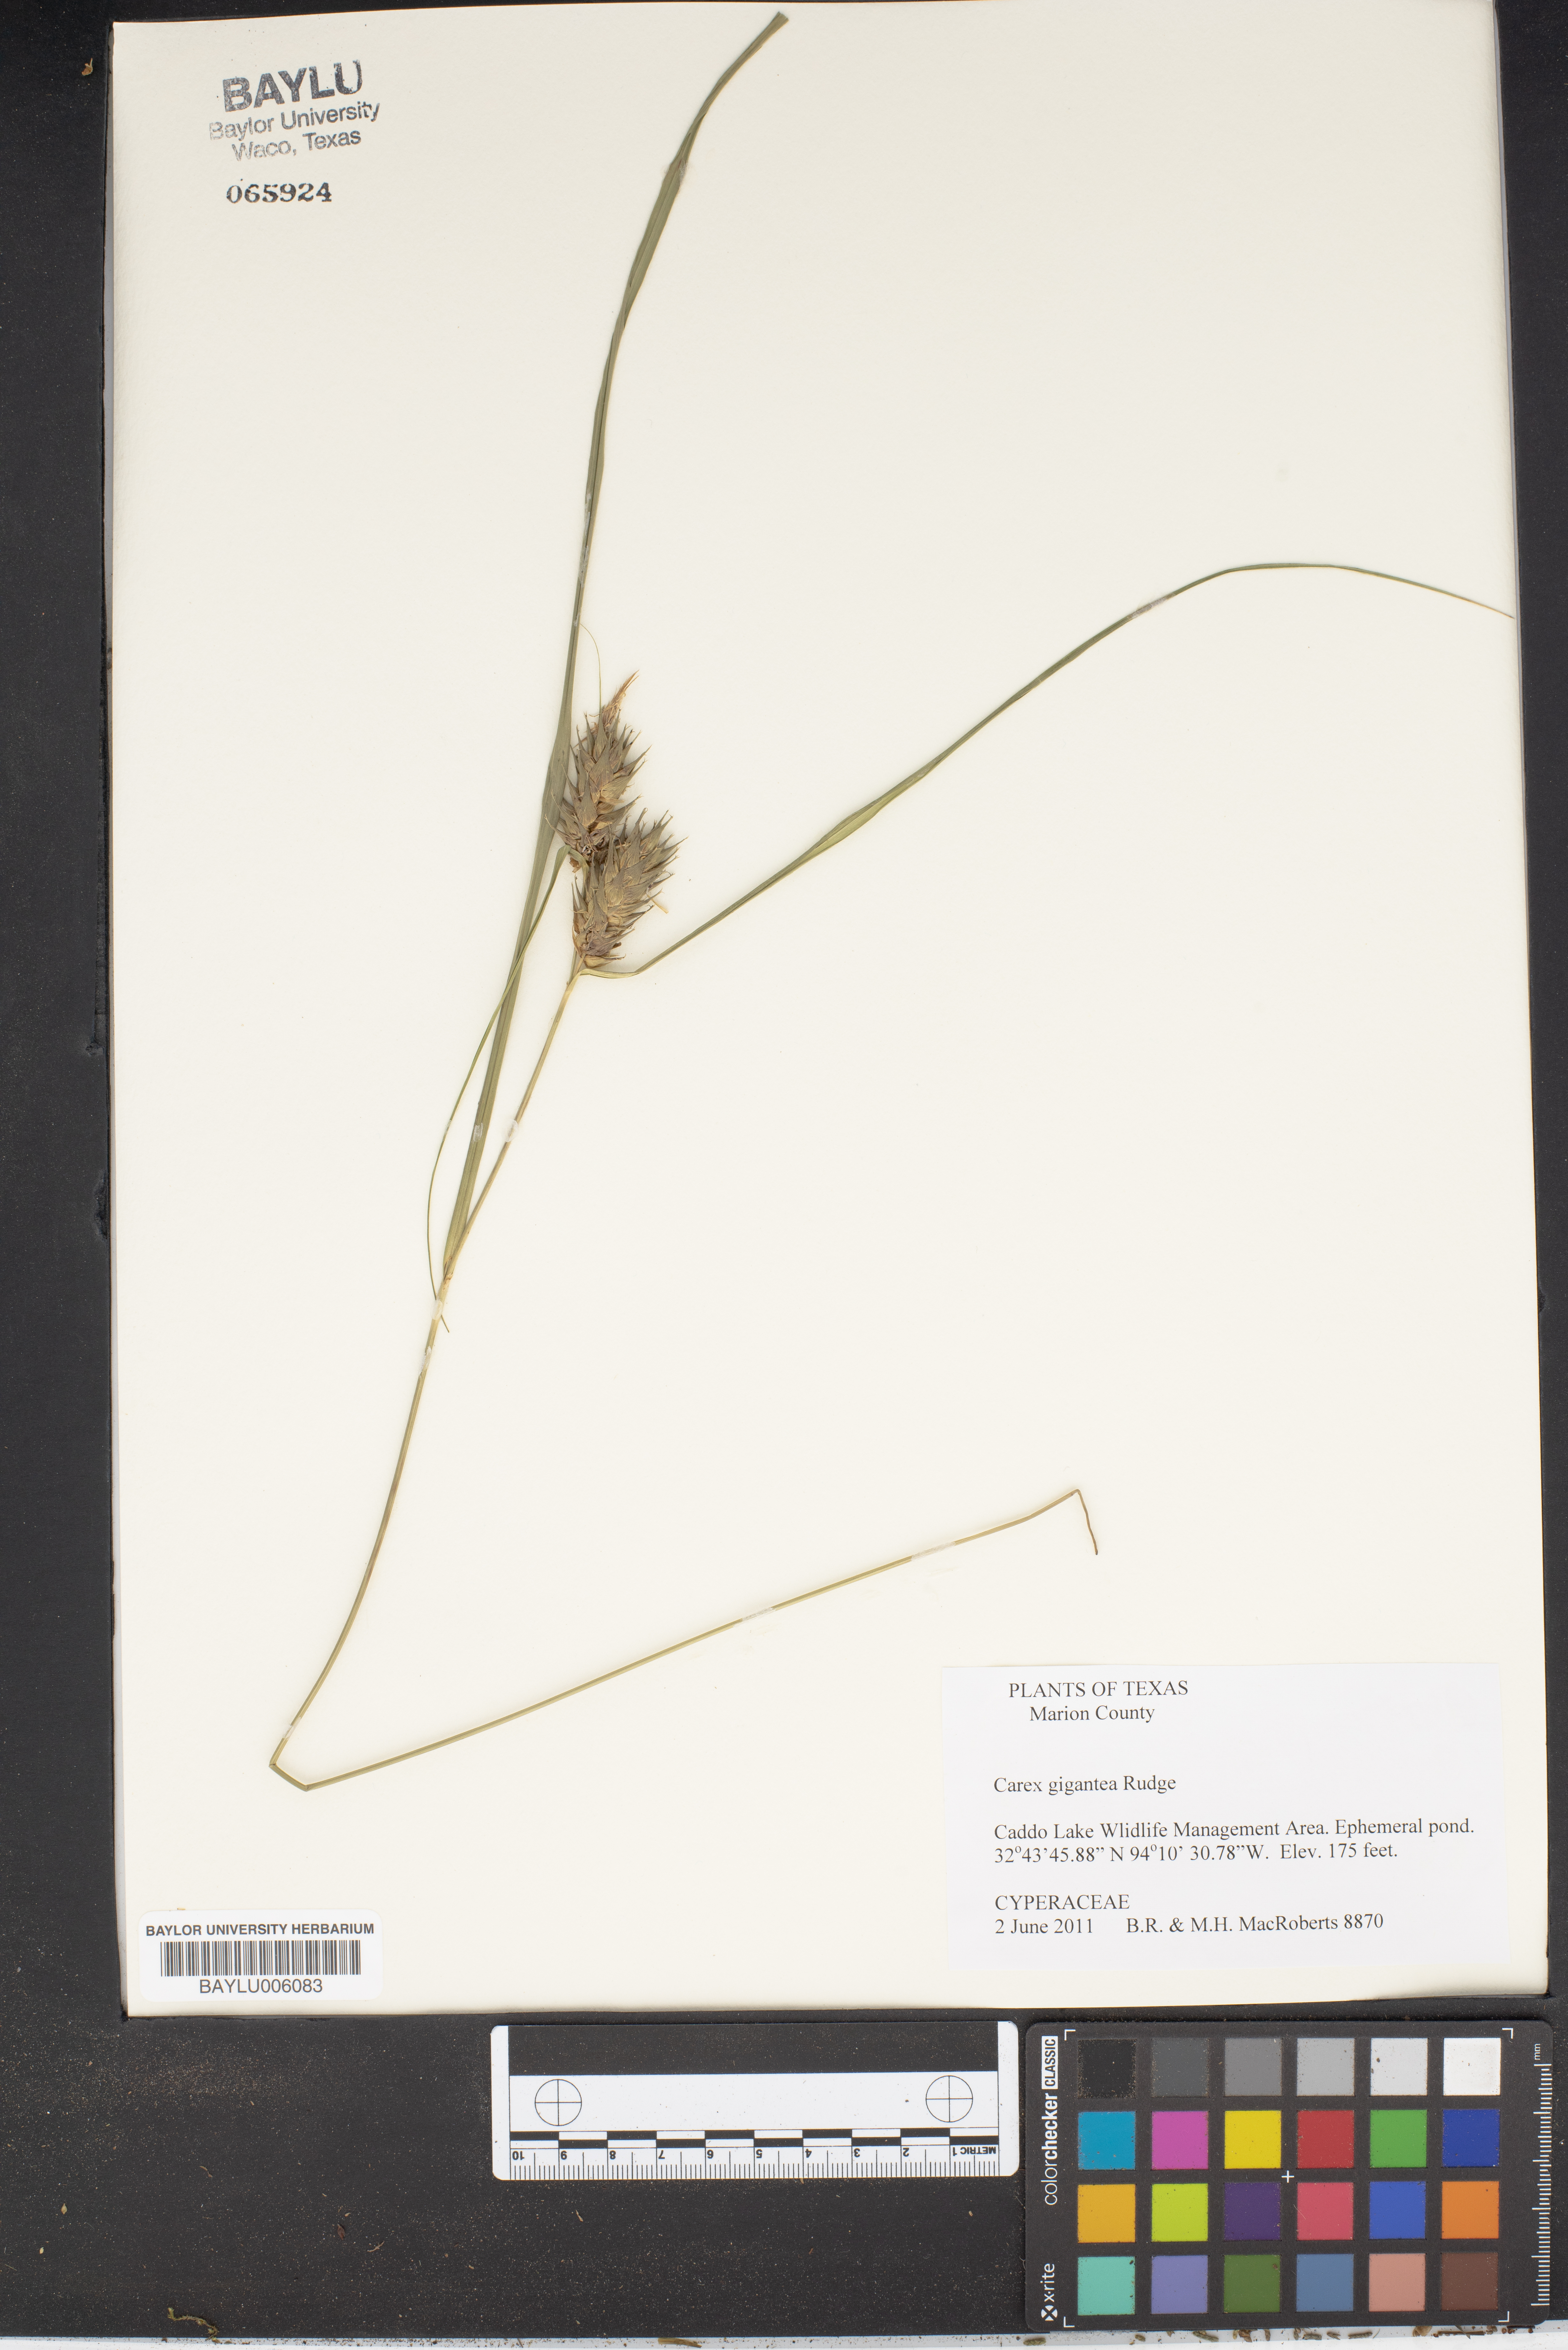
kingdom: Plantae
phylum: Tracheophyta
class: Liliopsida
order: Poales
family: Cyperaceae
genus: Carex
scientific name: Carex gigantea
